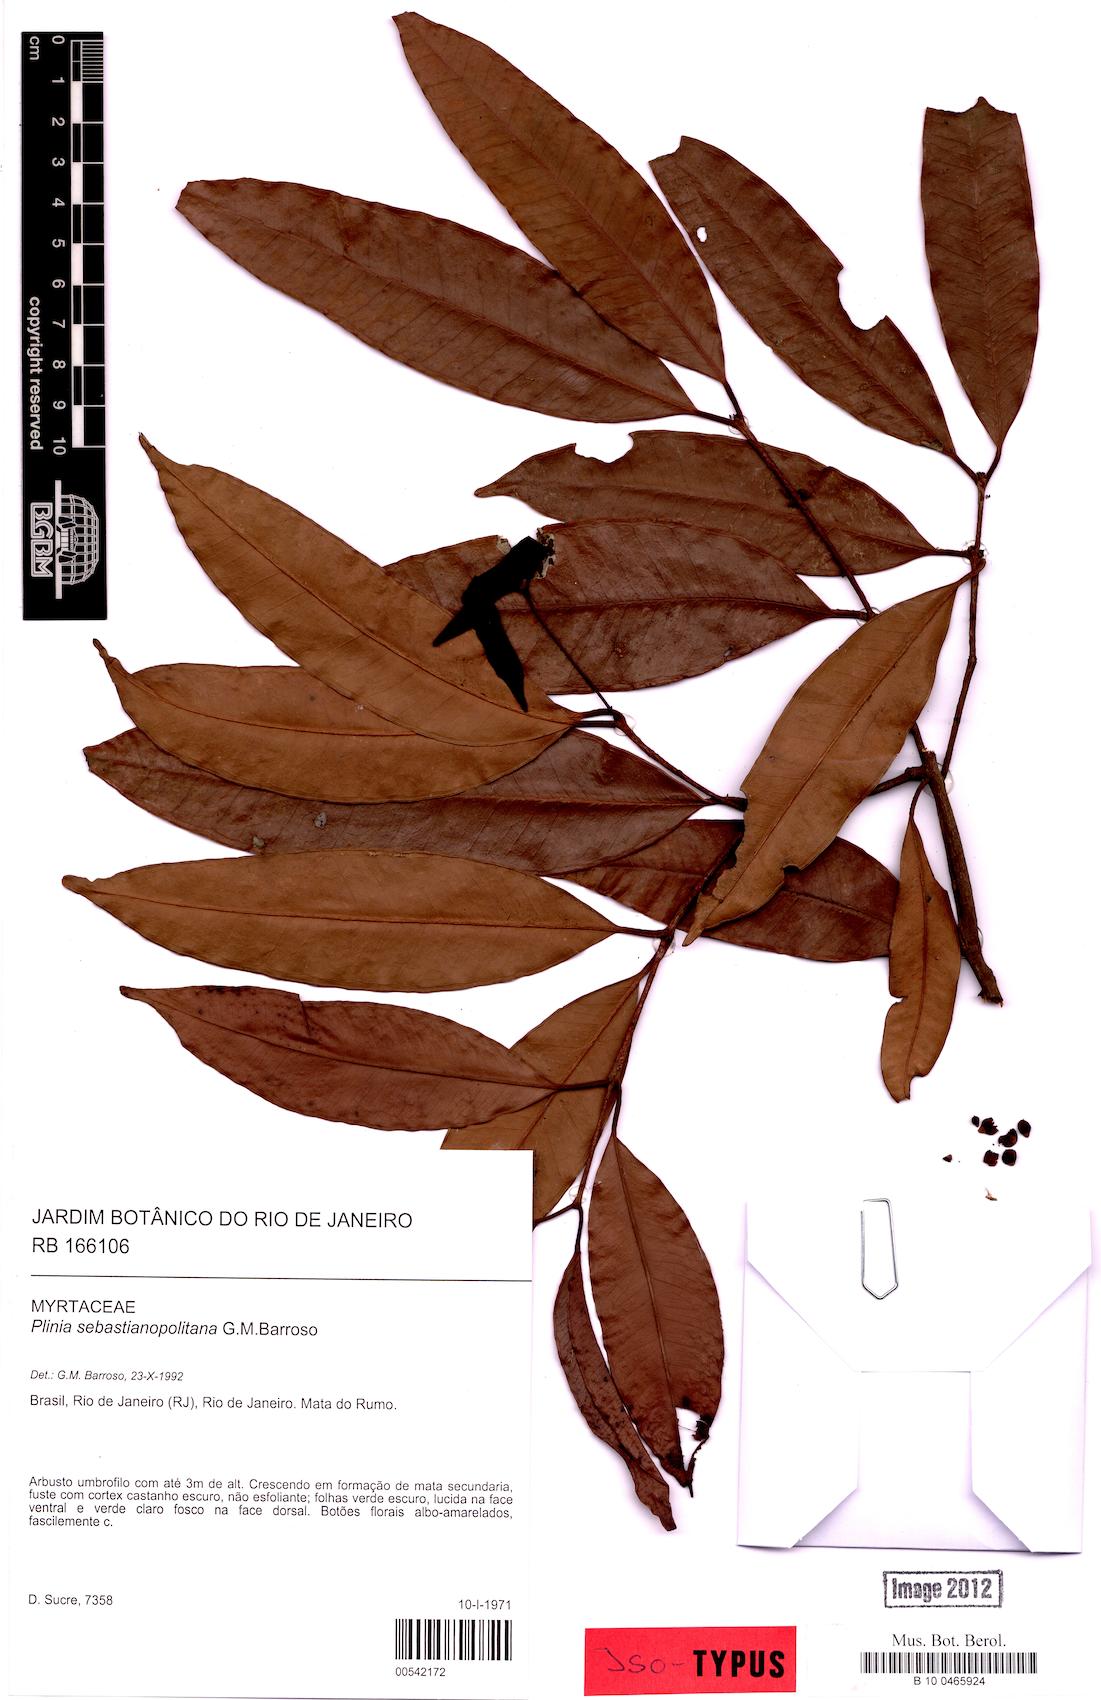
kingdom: Plantae
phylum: Tracheophyta
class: Magnoliopsida
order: Myrtales
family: Myrtaceae
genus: Eugenia
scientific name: Eugenia sebastianopolitana
